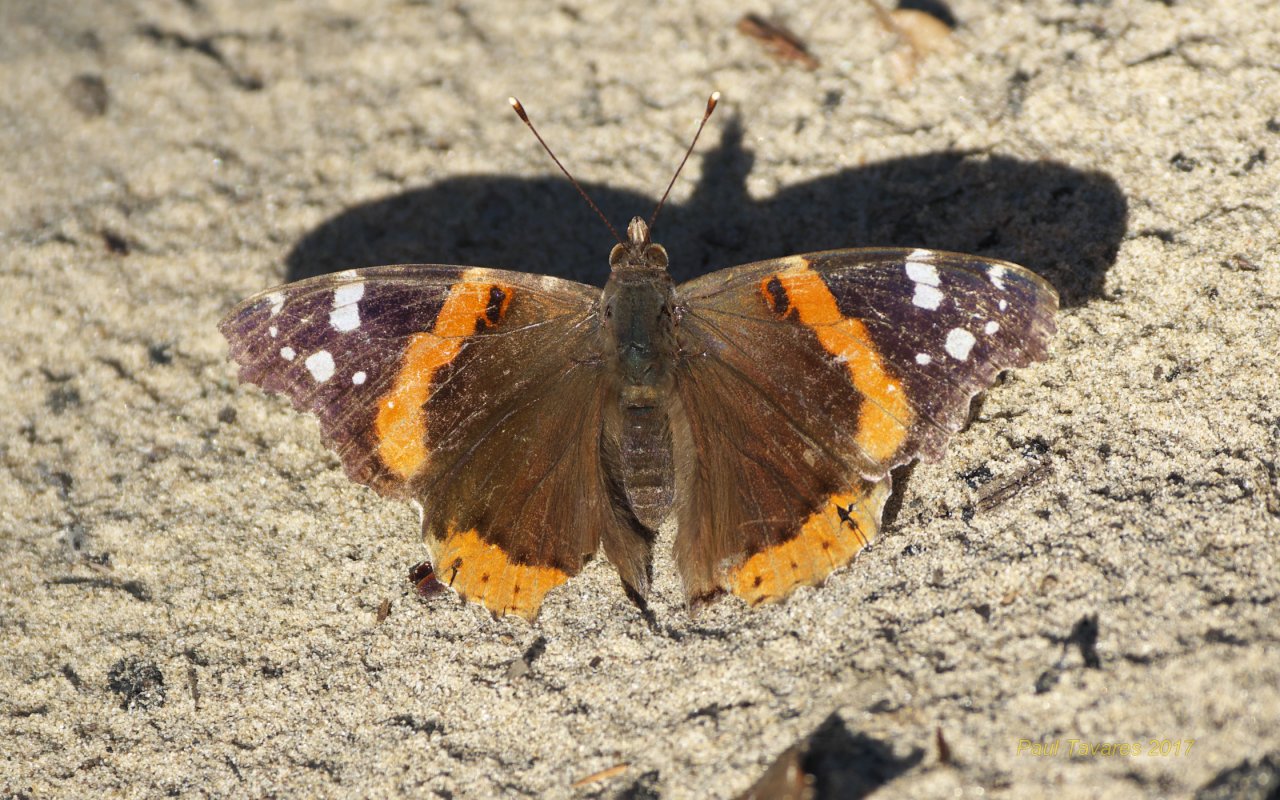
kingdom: Animalia
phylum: Arthropoda
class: Insecta
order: Lepidoptera
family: Nymphalidae
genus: Vanessa
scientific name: Vanessa atalanta
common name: Red Admiral
